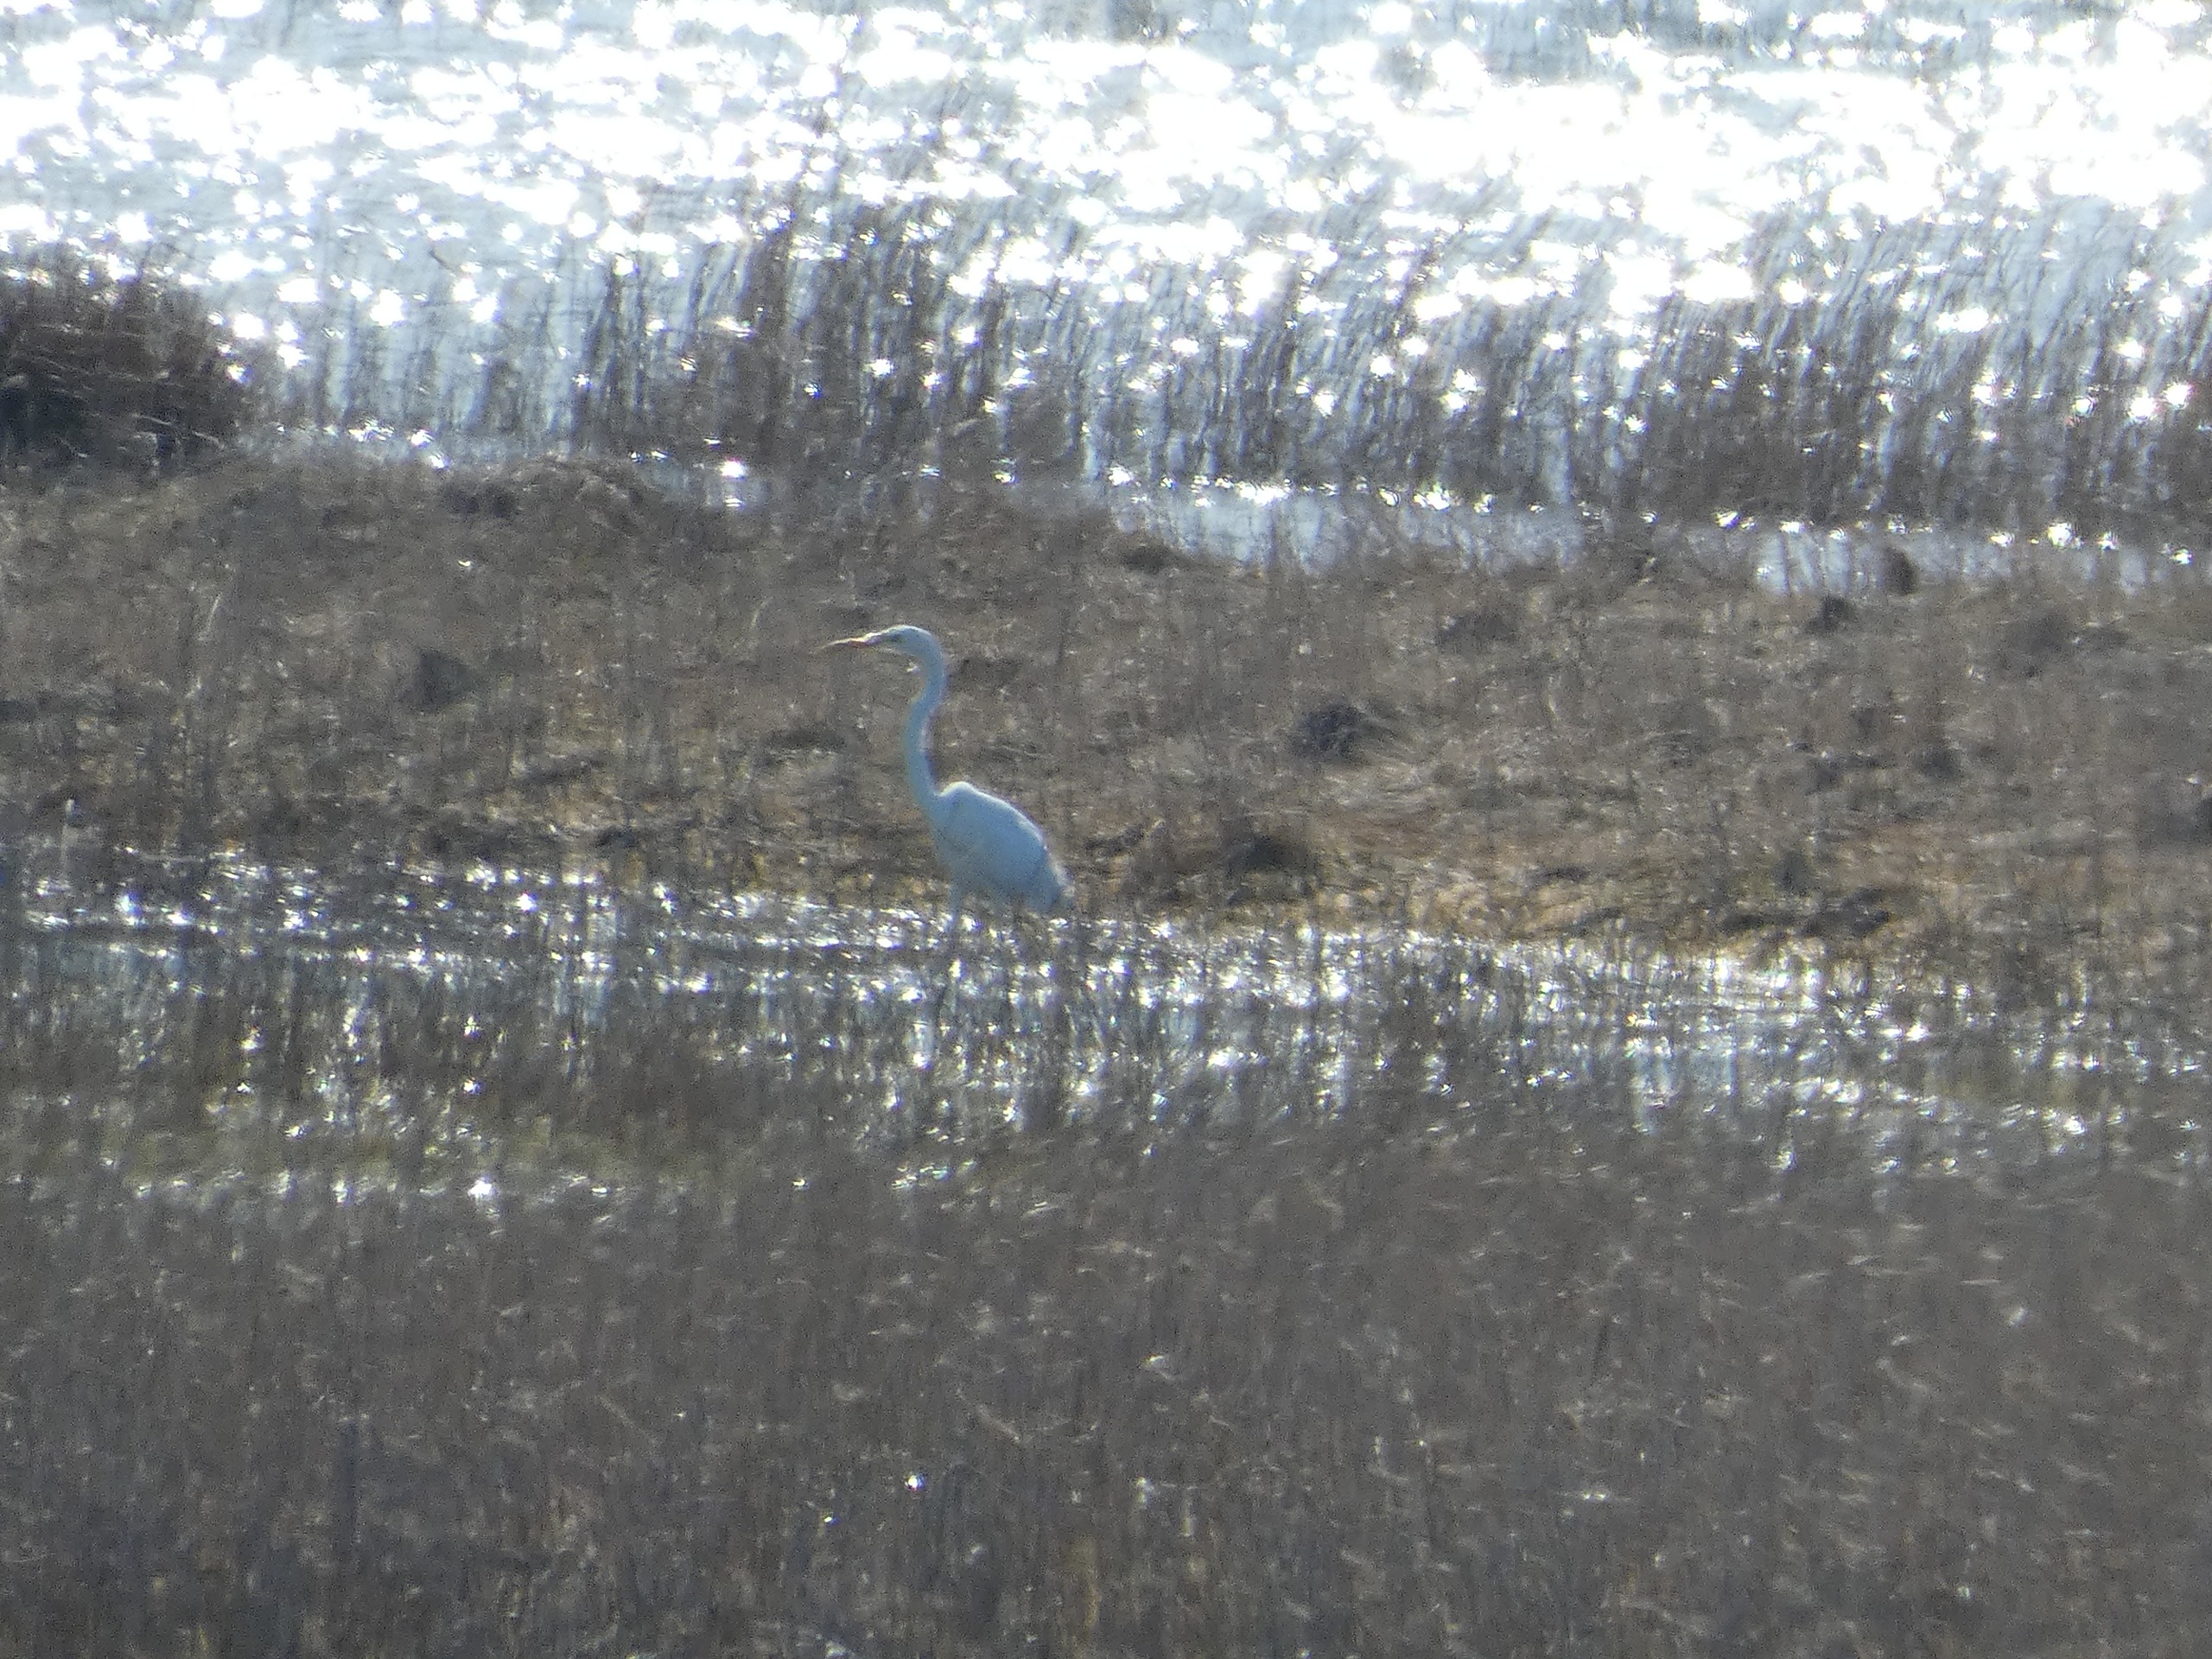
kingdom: Animalia
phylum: Chordata
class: Aves
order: Pelecaniformes
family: Ardeidae
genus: Ardea
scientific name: Ardea alba
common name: Sølvhejre
